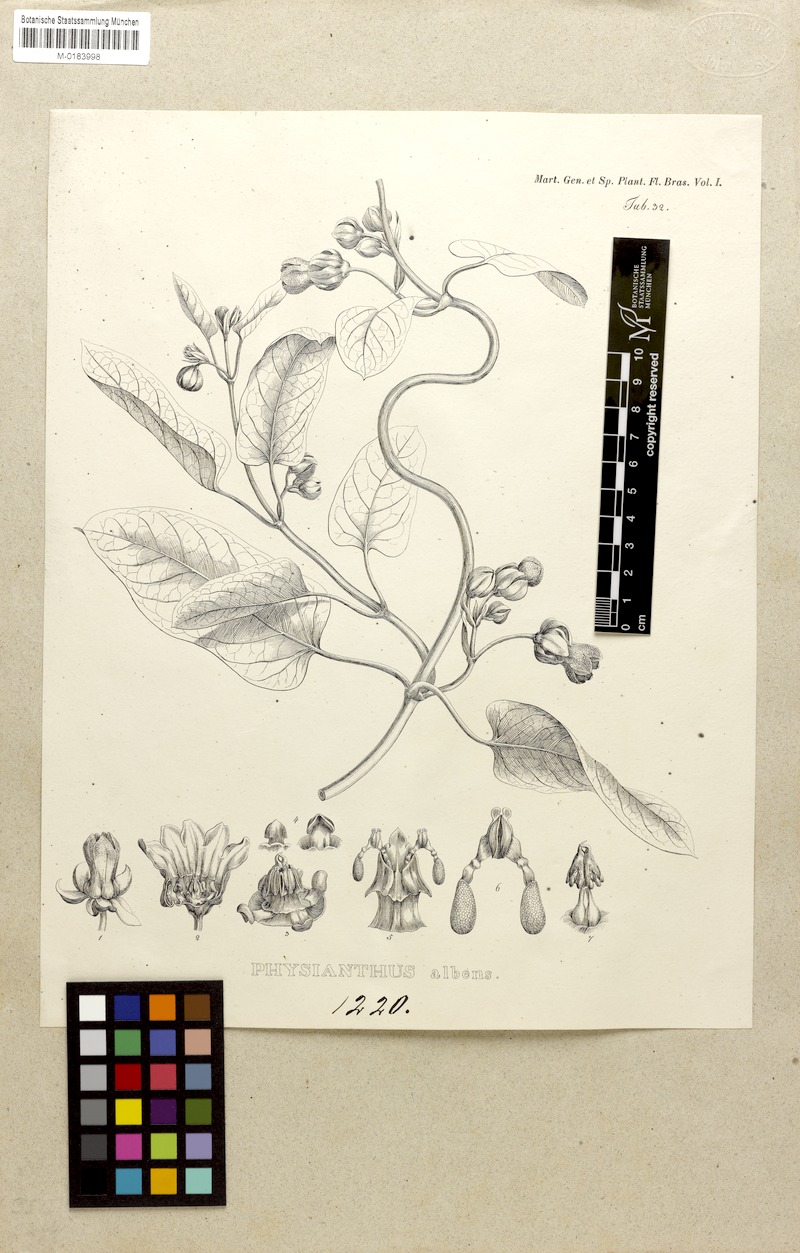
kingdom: Plantae
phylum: Tracheophyta
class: Magnoliopsida
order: Gentianales
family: Apocynaceae
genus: Araujia
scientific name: Araujia sericifera
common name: White bladderflower
